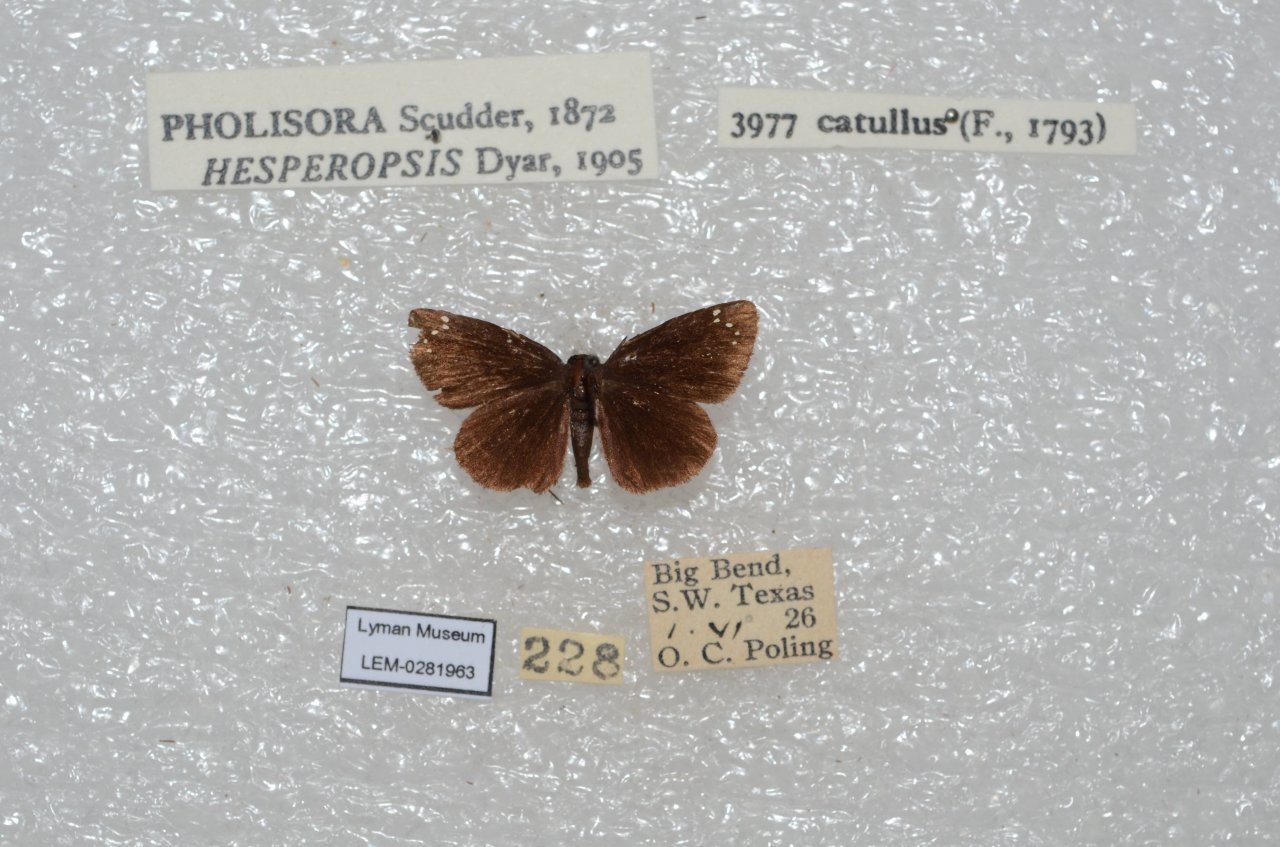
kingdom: Animalia
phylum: Arthropoda
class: Insecta
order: Lepidoptera
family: Hesperiidae
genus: Pholisora
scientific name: Pholisora catullus
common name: Common Sootywing
